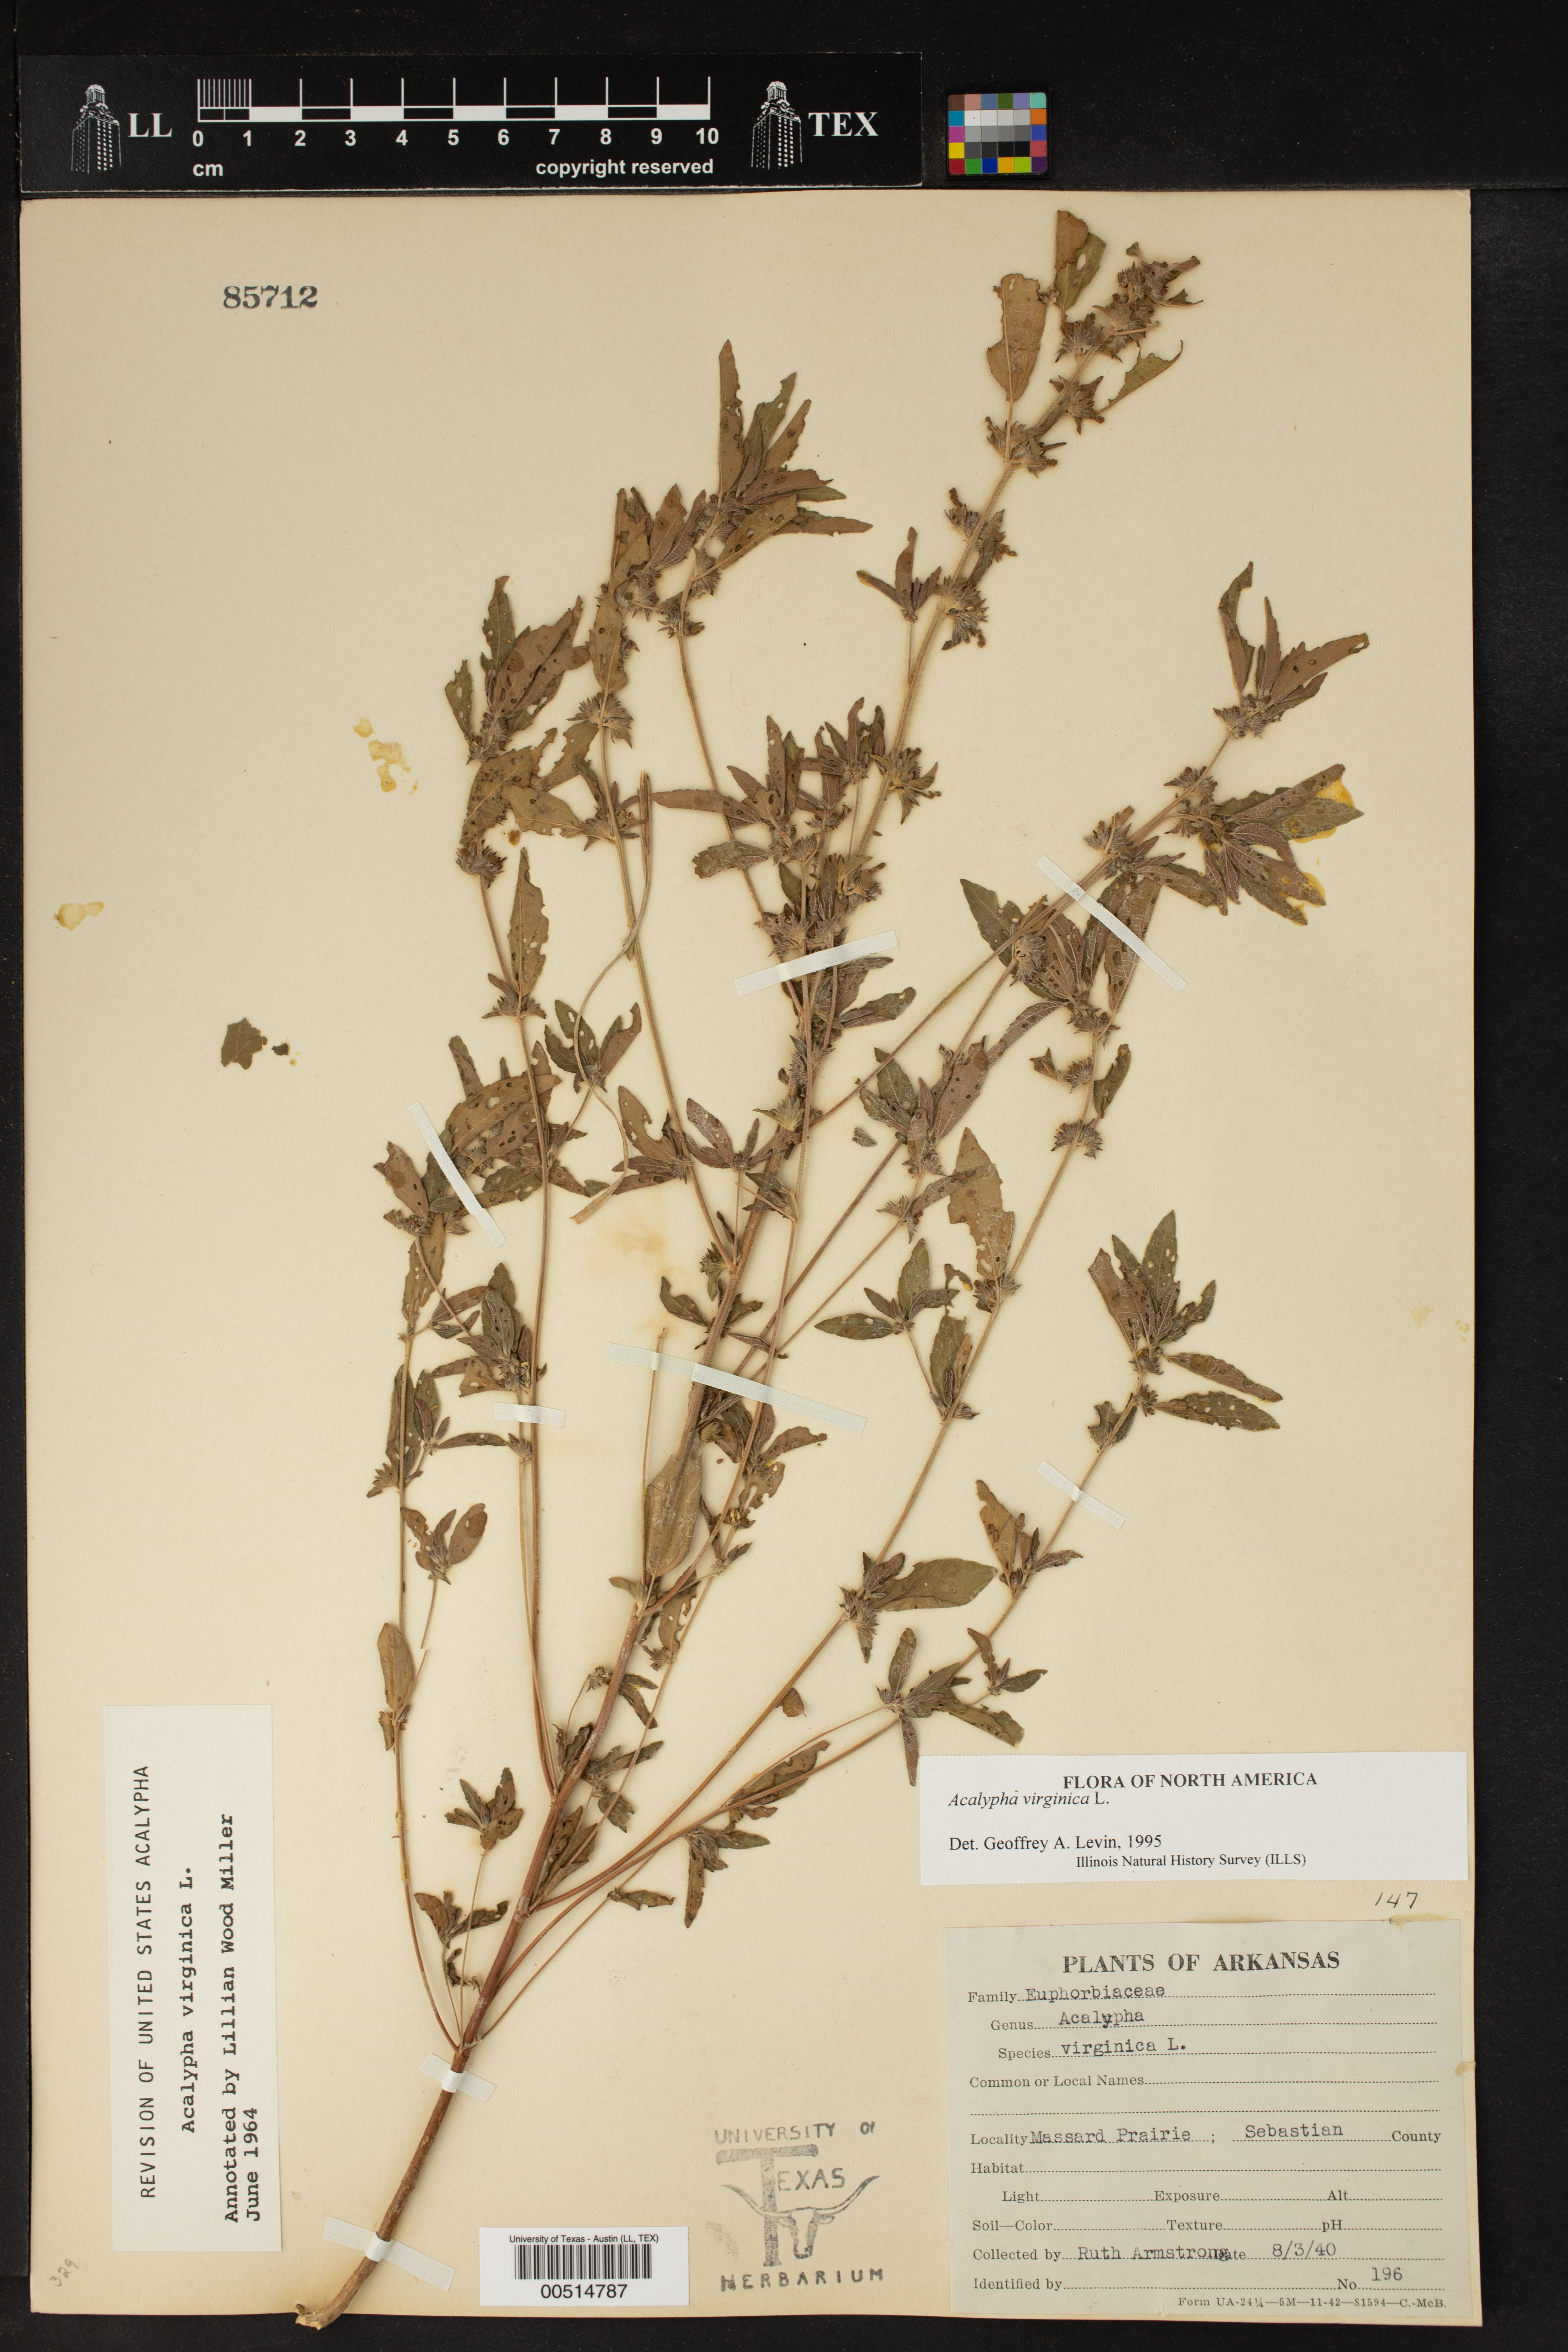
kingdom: Plantae
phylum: Tracheophyta
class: Magnoliopsida
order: Malpighiales
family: Euphorbiaceae
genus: Acalypha
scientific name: Acalypha virginica
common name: Virginia copperleaf
